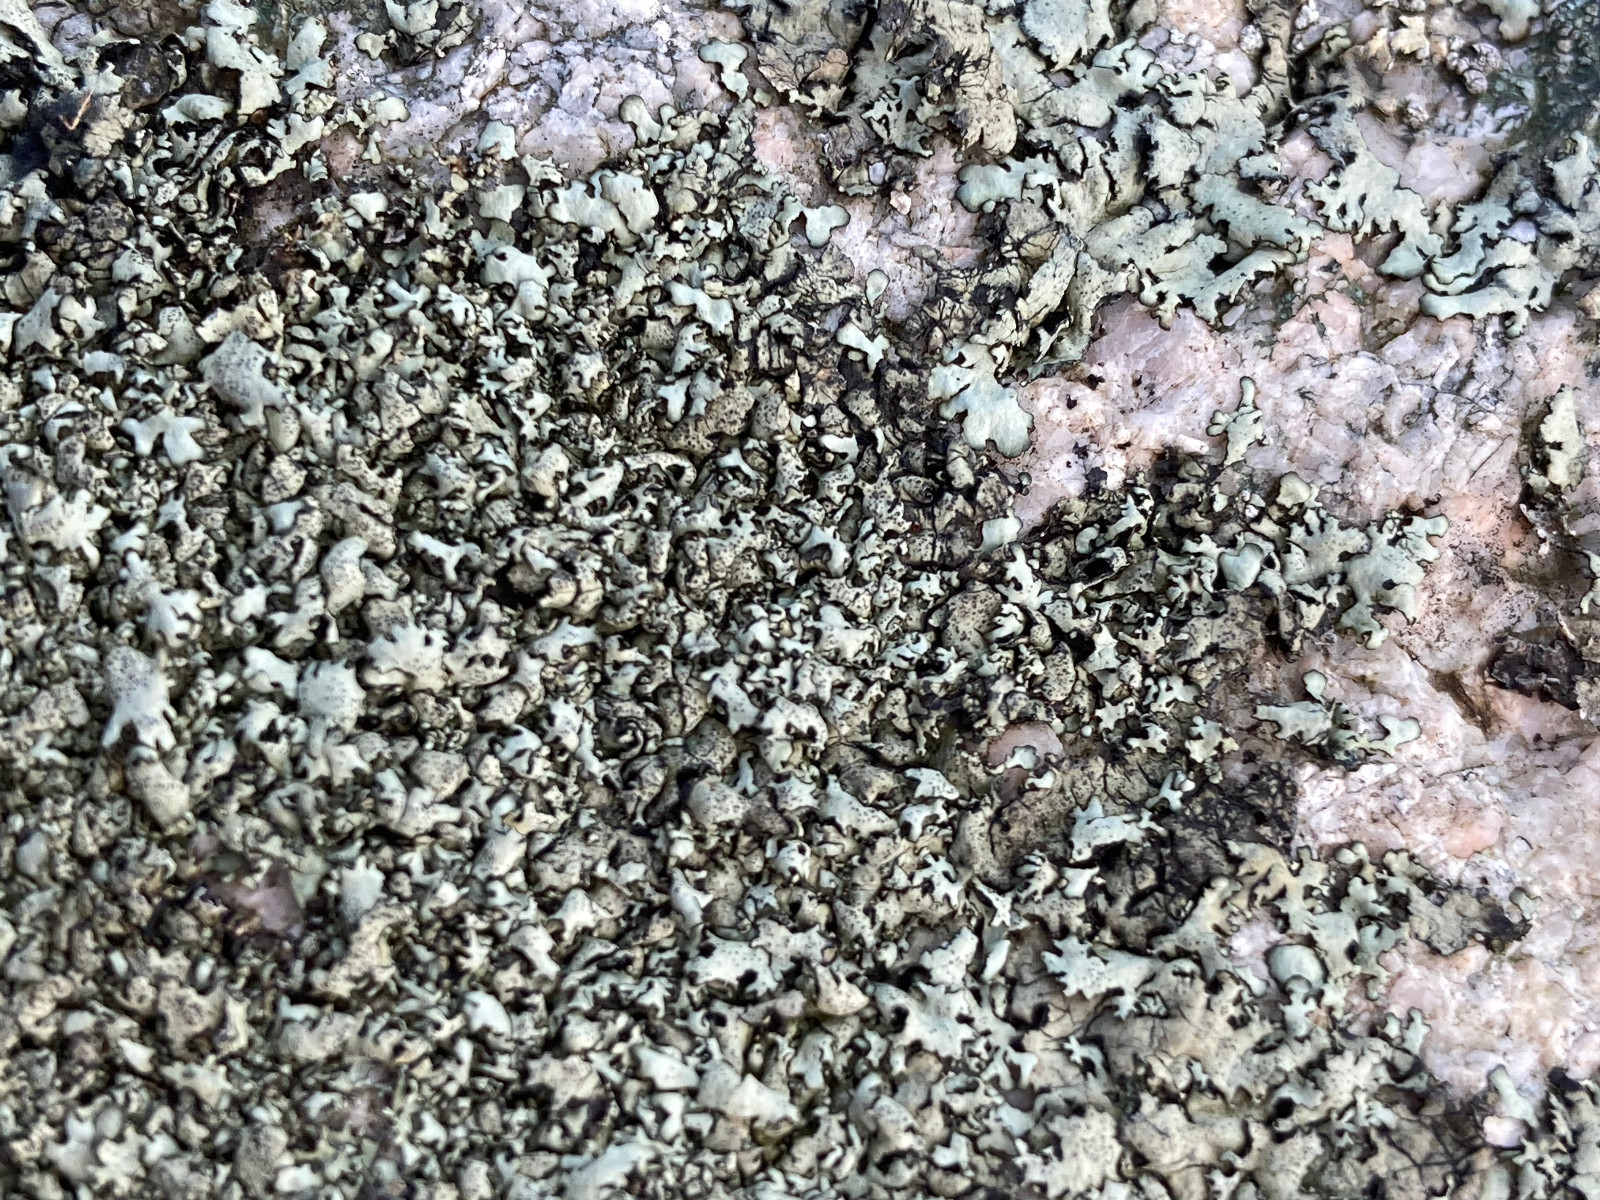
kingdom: Fungi
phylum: Ascomycota
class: Lecanoromycetes
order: Lecanorales
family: Parmeliaceae
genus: Xanthoparmelia
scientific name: Xanthoparmelia conspersa
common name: messing-skållav
